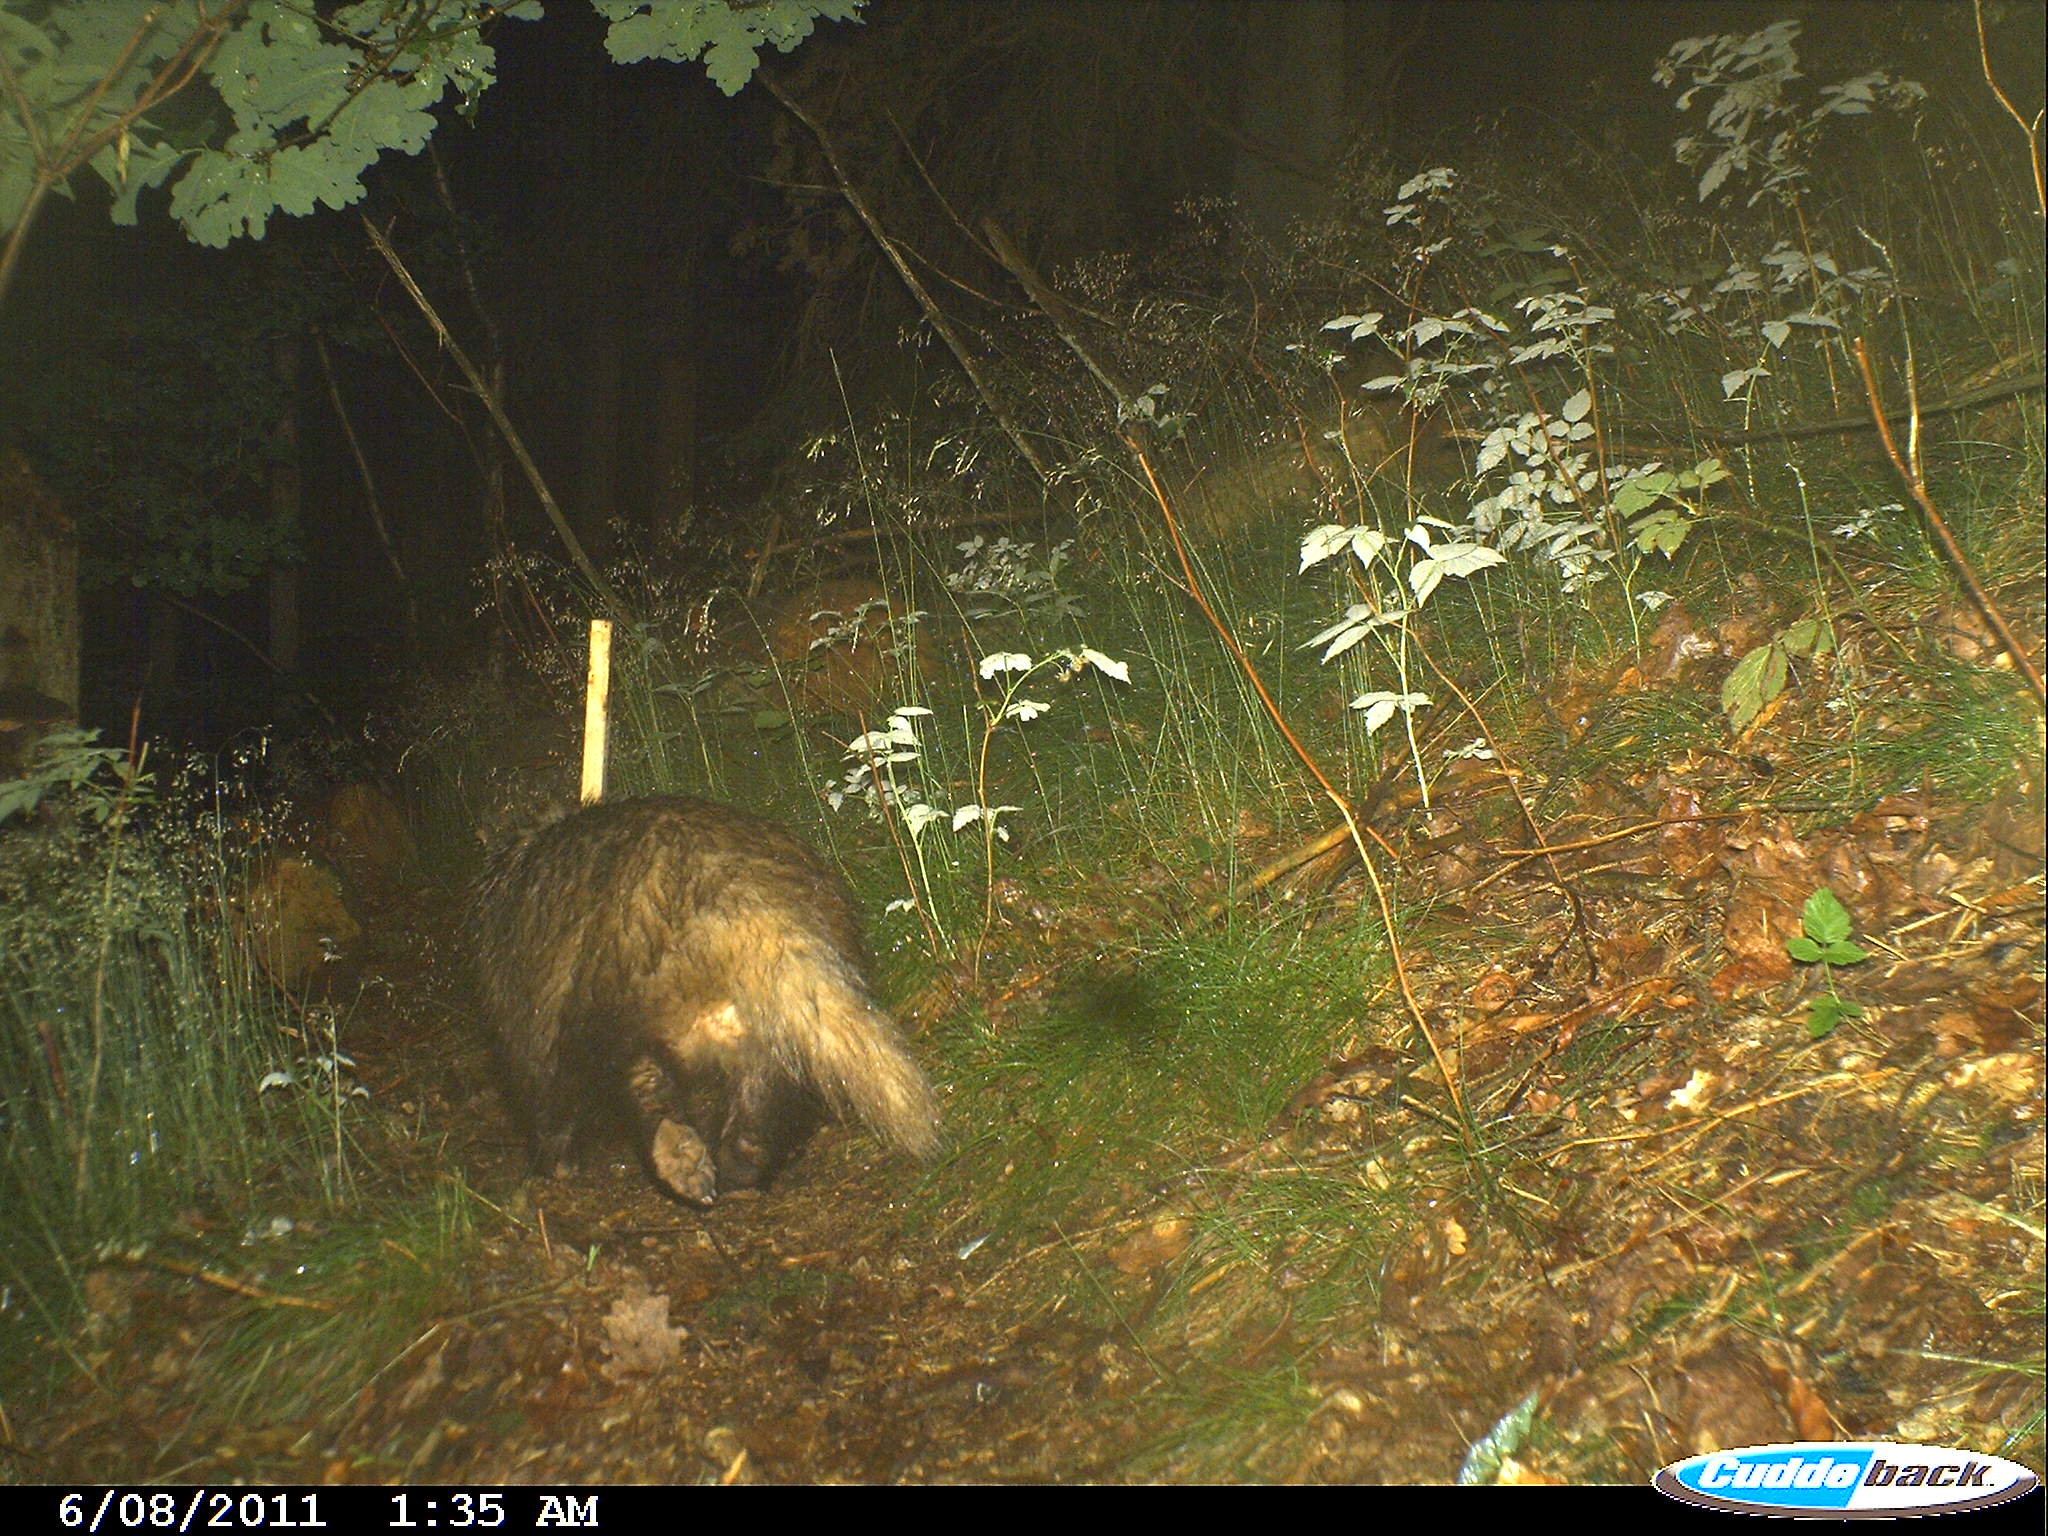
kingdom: Animalia
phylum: Chordata
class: Mammalia
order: Carnivora
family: Mustelidae
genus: Meles
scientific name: Meles meles
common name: Eurasian badger
